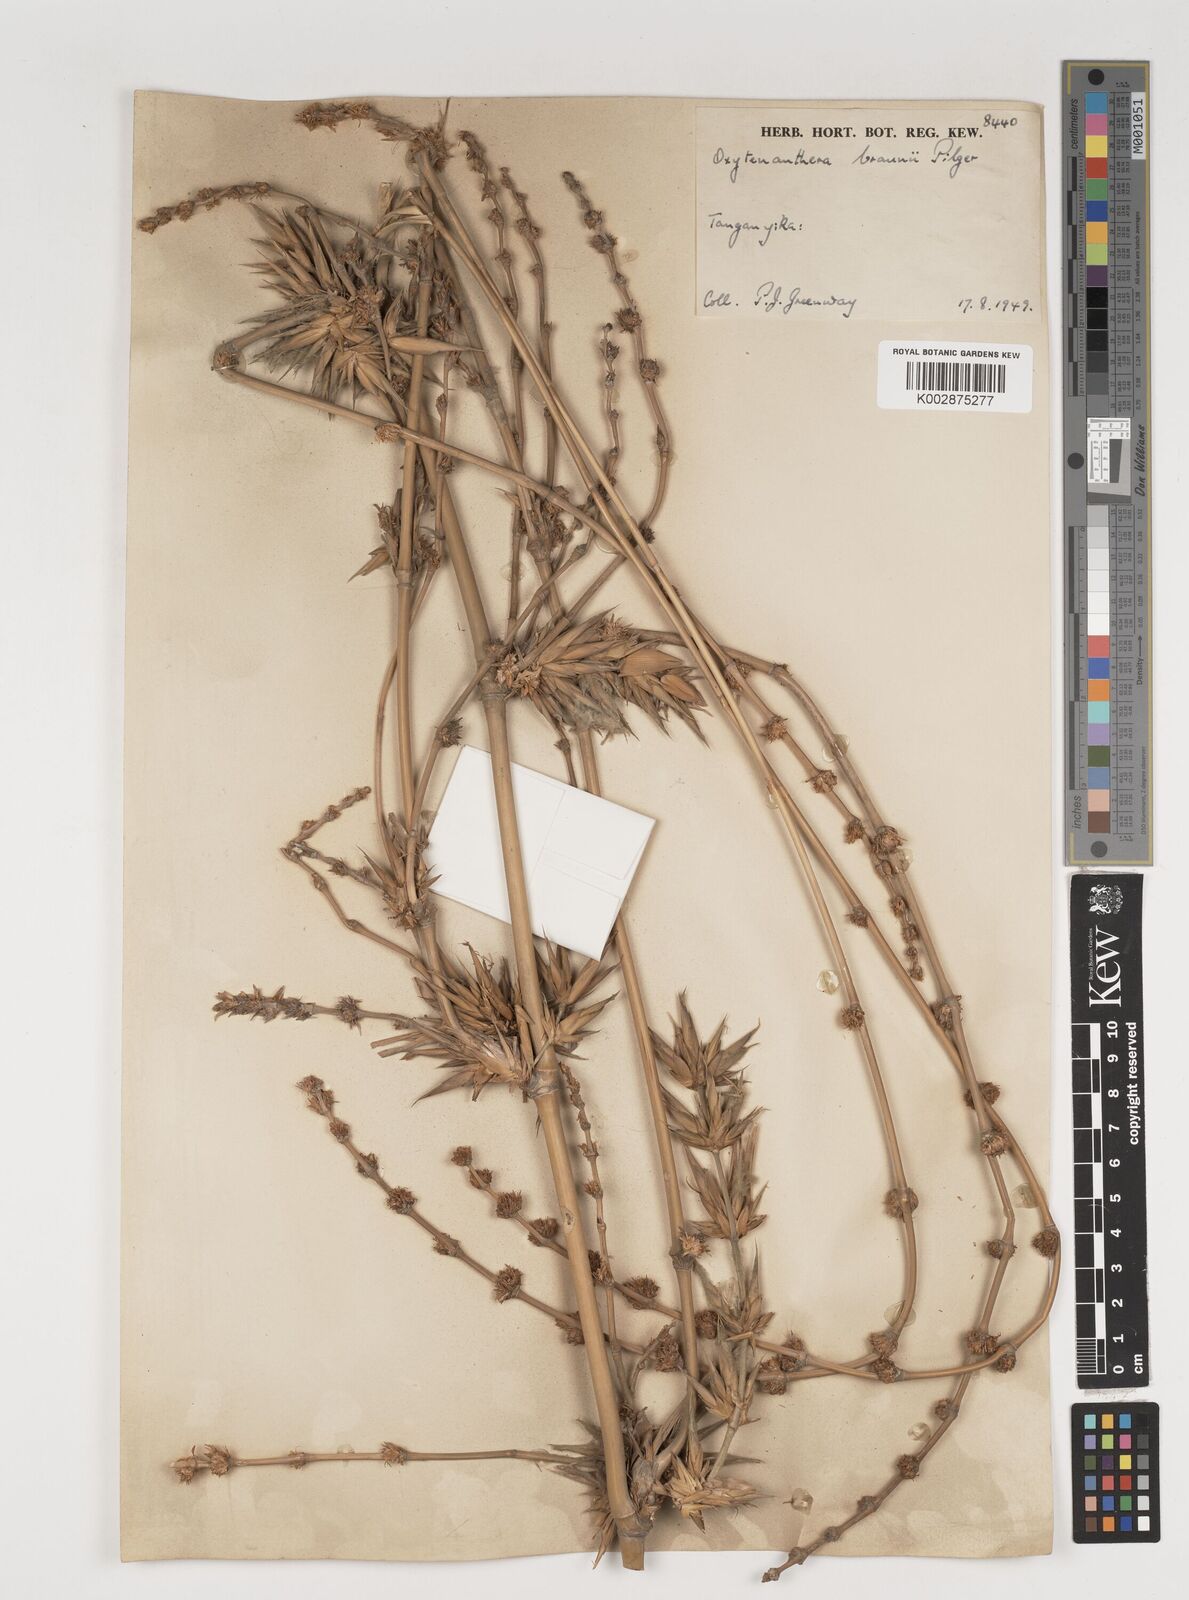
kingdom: Plantae
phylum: Tracheophyta
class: Liliopsida
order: Poales
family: Poaceae
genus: Oxytenanthera
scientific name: Oxytenanthera abyssinica
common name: Wine bamboo
